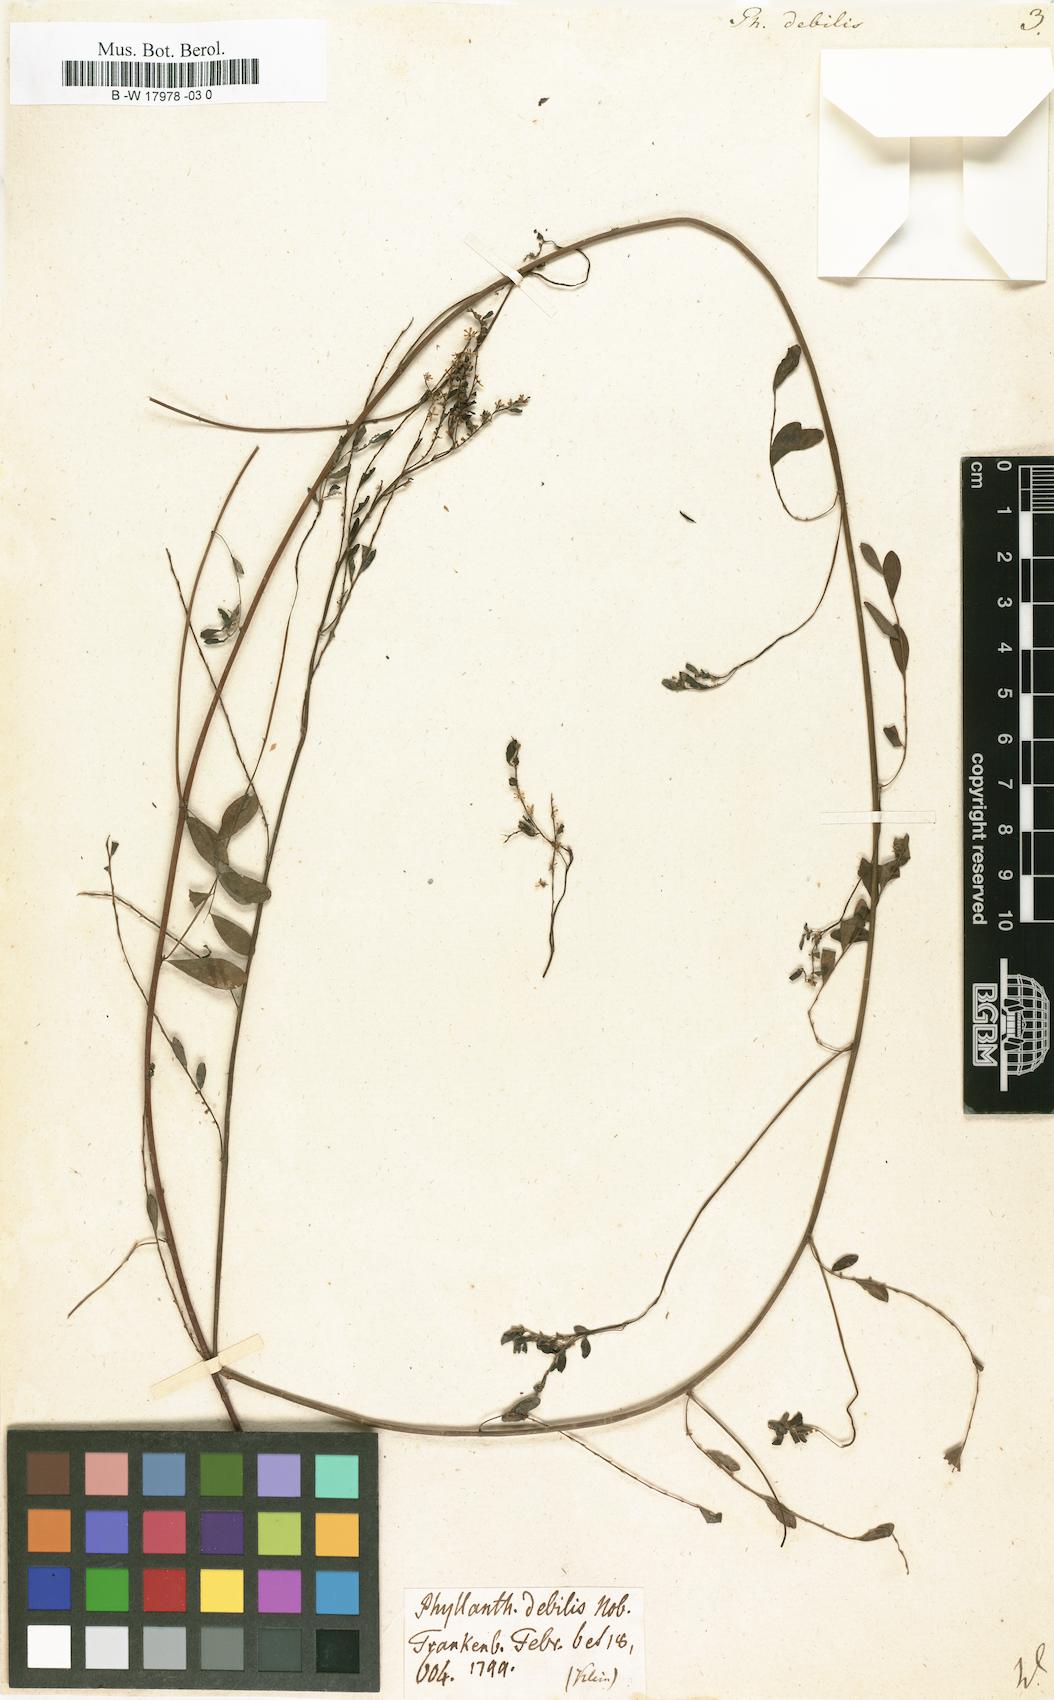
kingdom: Plantae
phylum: Tracheophyta
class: Magnoliopsida
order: Malpighiales
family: Phyllanthaceae
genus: Phyllanthus
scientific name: Phyllanthus debilis
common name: Niruri
